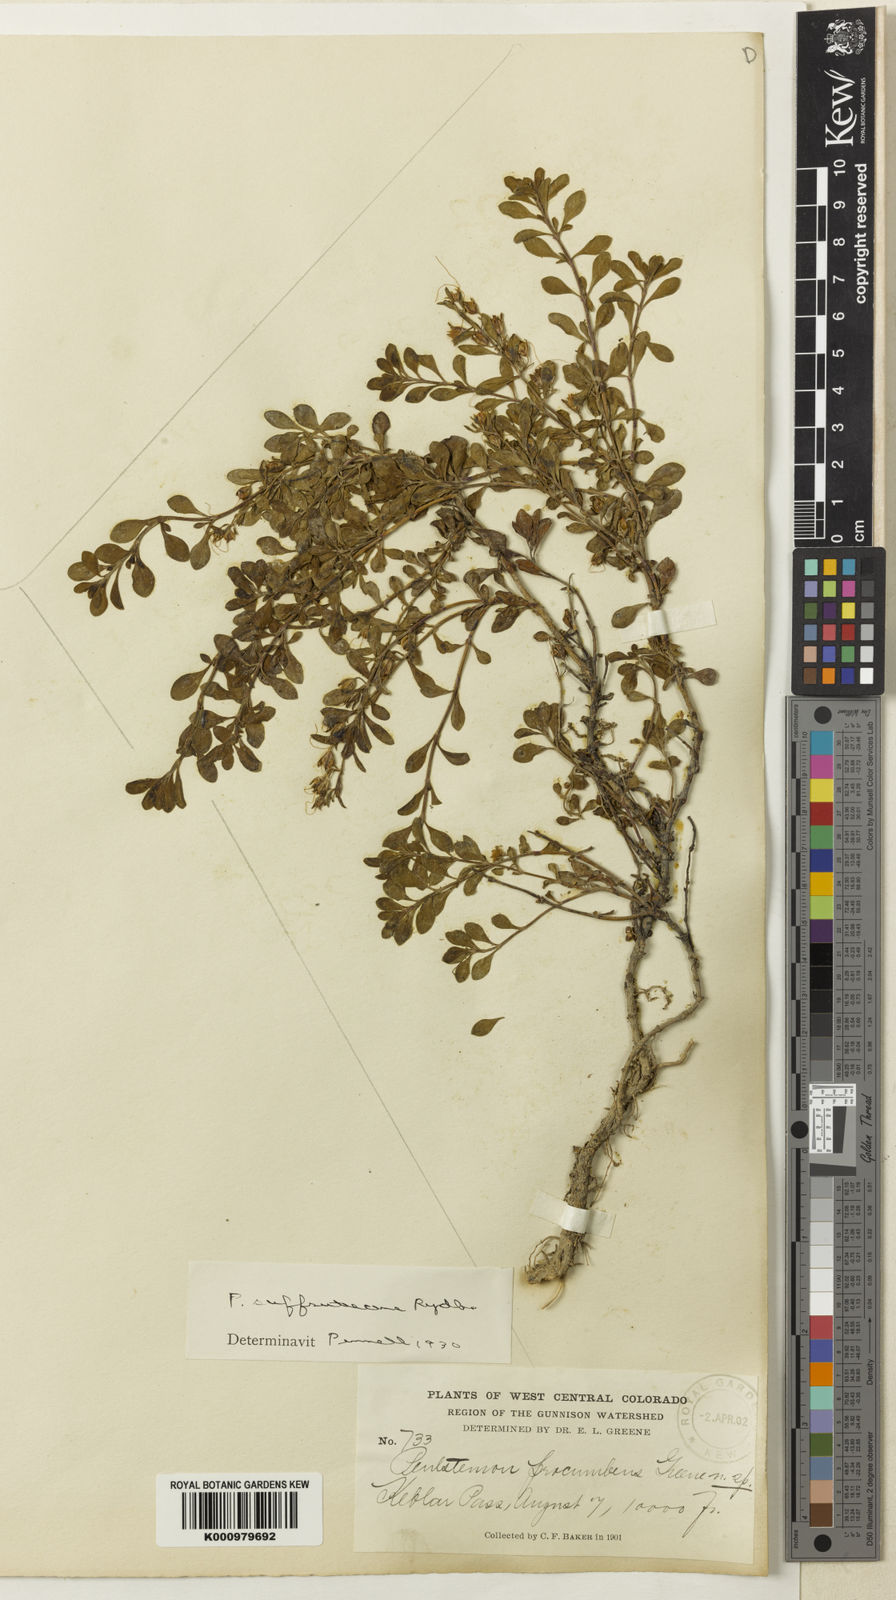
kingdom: Plantae
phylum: Tracheophyta
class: Magnoliopsida
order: Lamiales
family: Plantaginaceae
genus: Penstemon
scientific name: Penstemon crandallii
